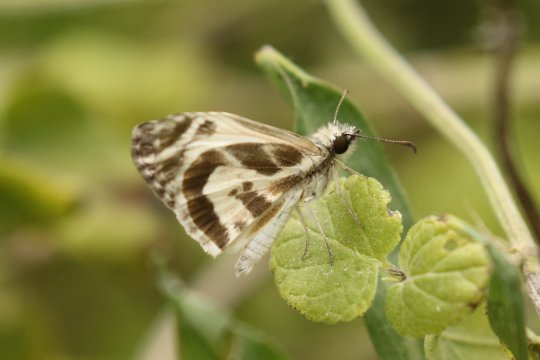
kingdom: Animalia
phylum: Arthropoda
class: Insecta
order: Lepidoptera
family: Hesperiidae
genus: Heliopetes
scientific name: Heliopetes macaira
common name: Turk's-cap White-Skipper
